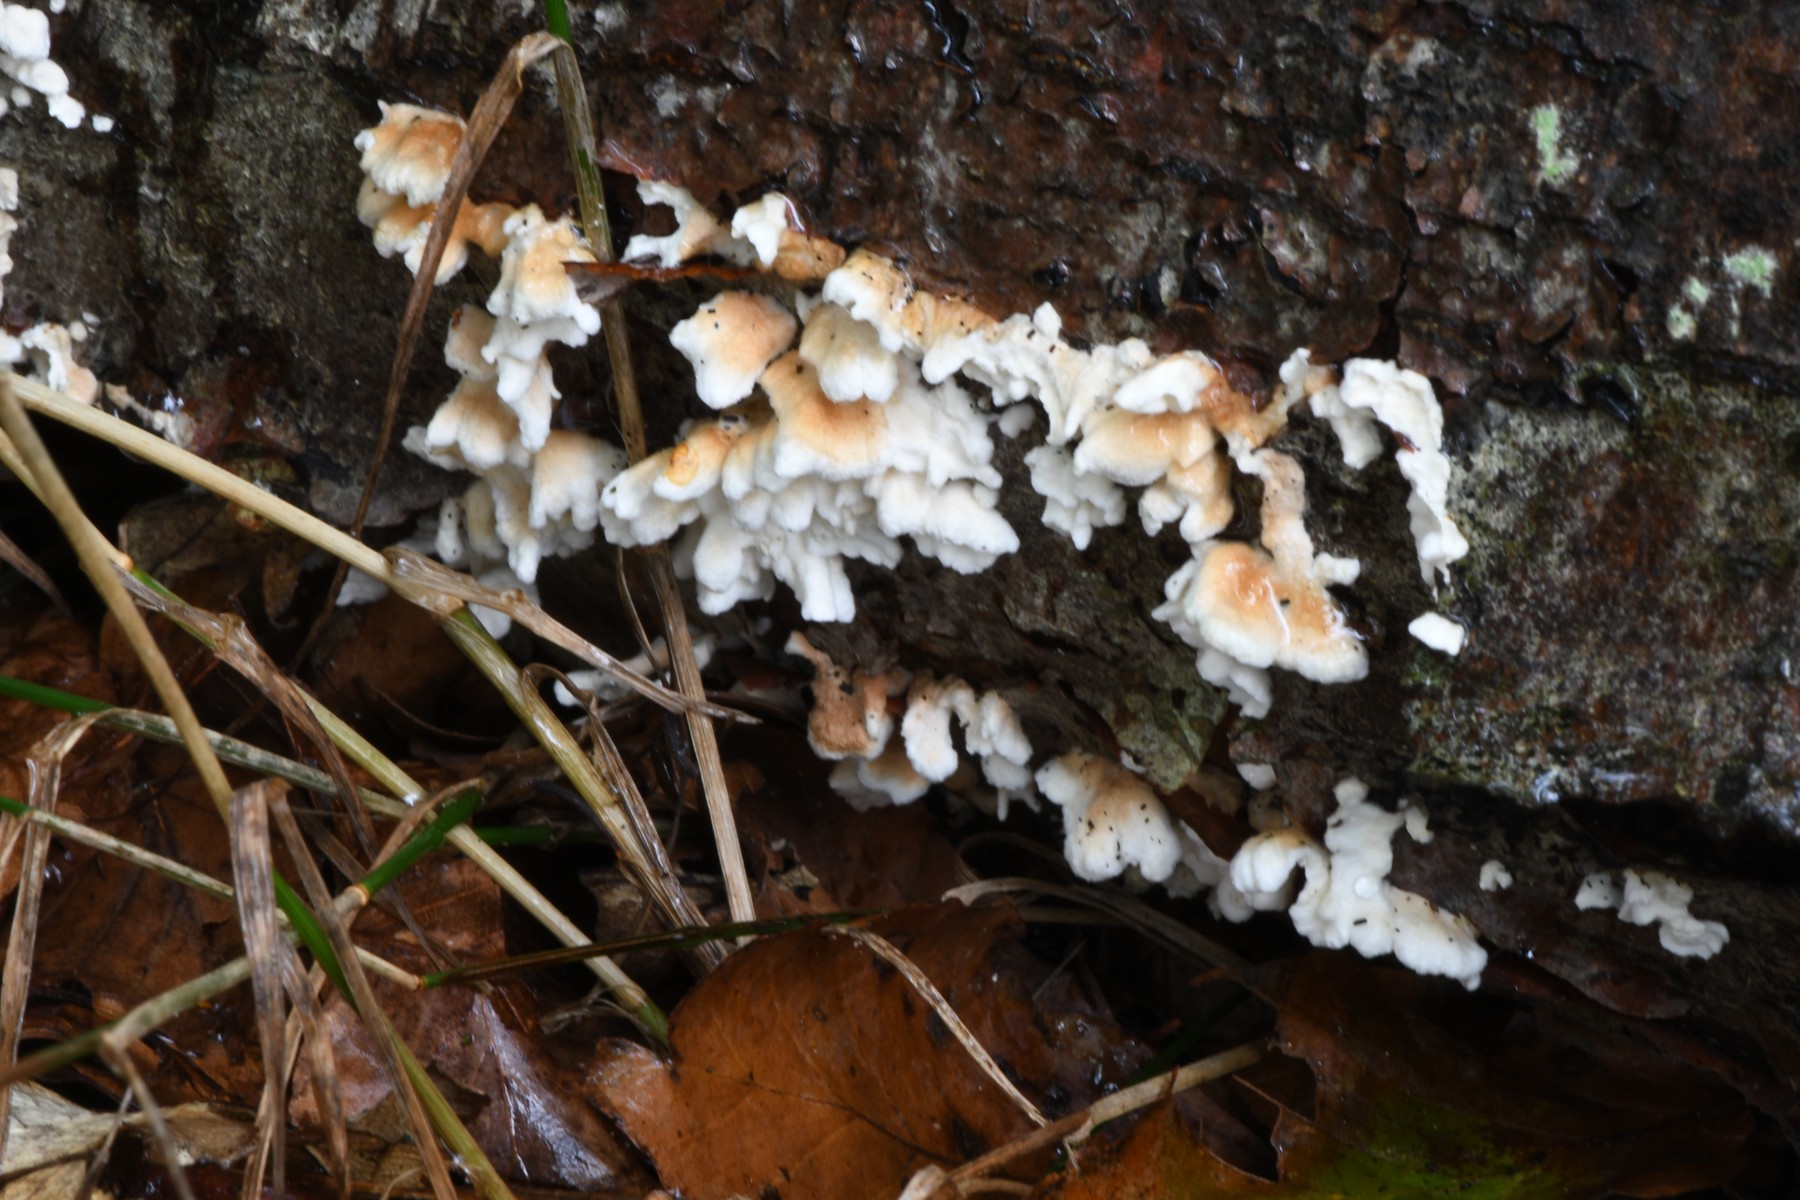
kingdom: Fungi
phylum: Basidiomycota
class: Agaricomycetes
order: Amylocorticiales
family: Amylocorticiaceae
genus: Plicaturopsis
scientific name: Plicaturopsis crispa
